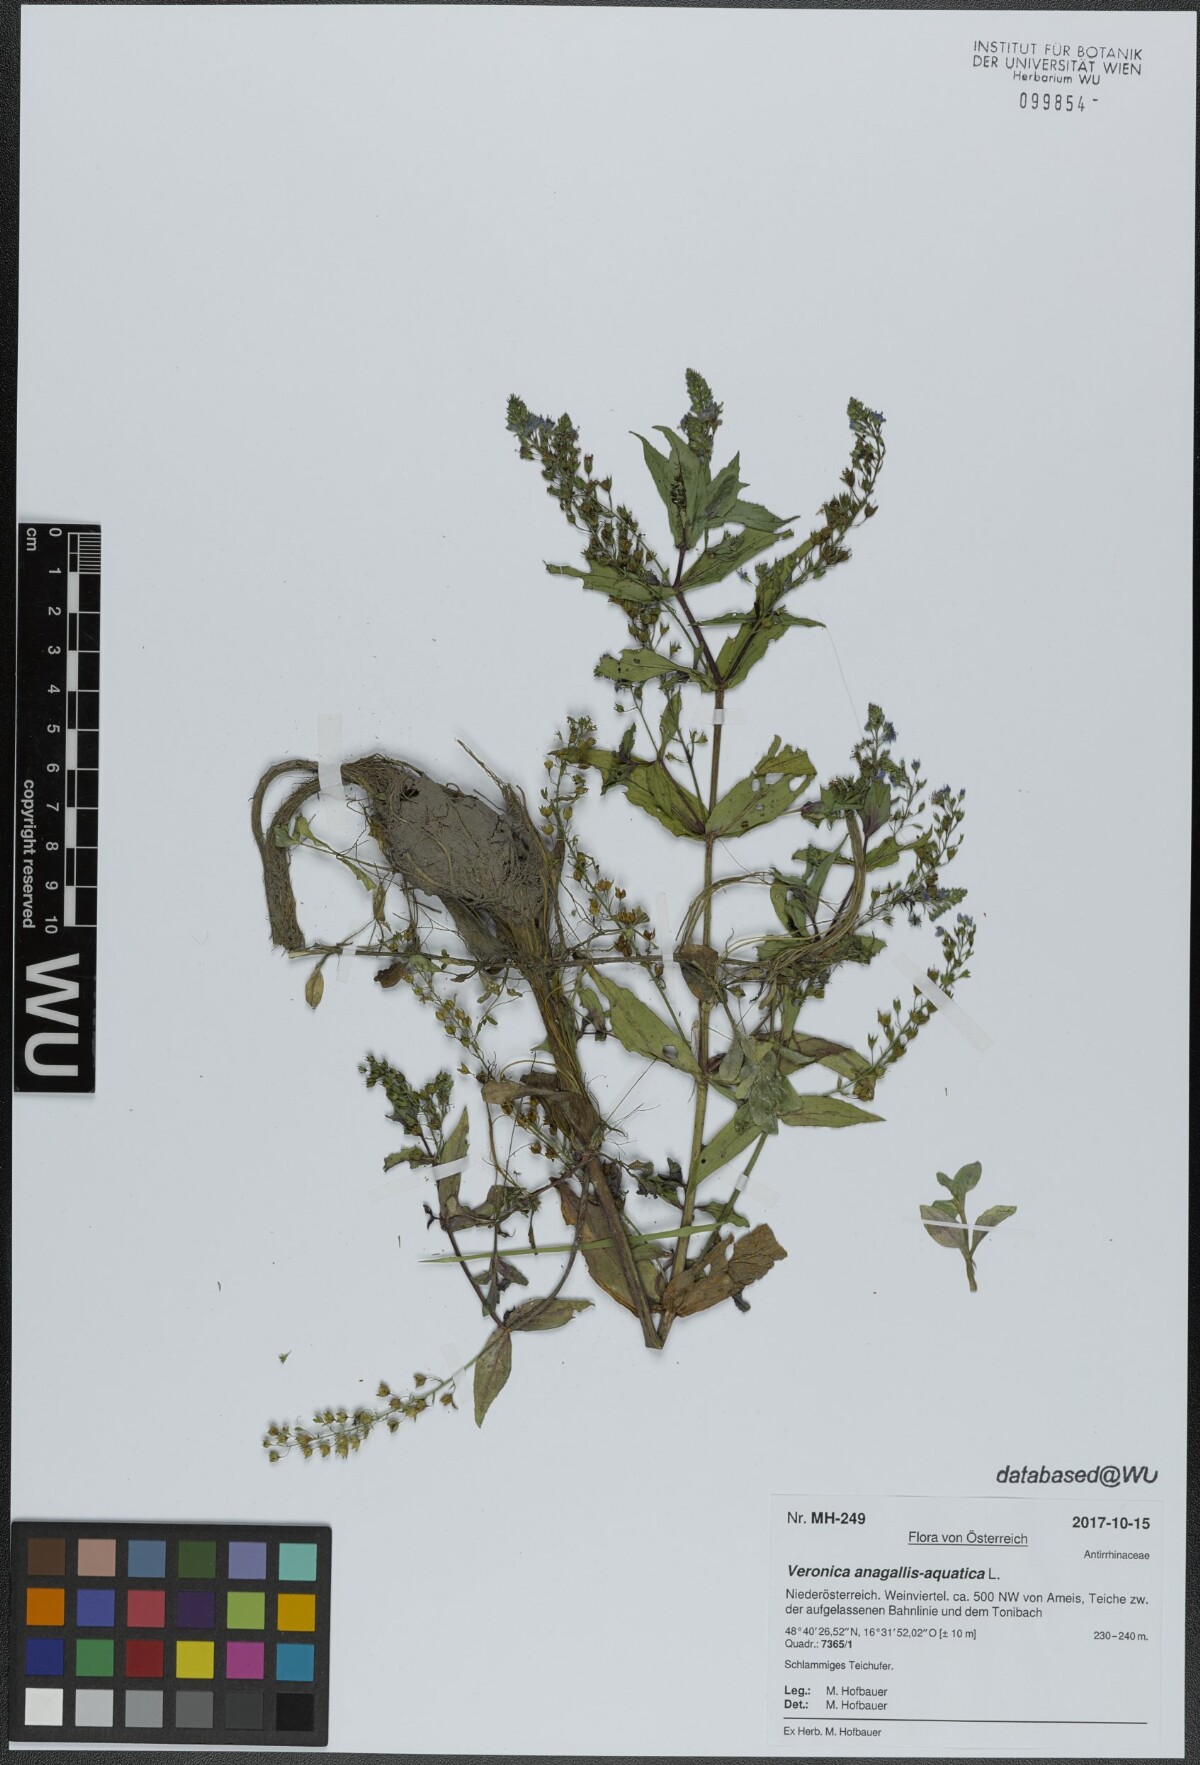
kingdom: Plantae
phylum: Tracheophyta
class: Magnoliopsida
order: Lamiales
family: Plantaginaceae
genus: Veronica
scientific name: Veronica anagallis-aquatica
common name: Water speedwell
